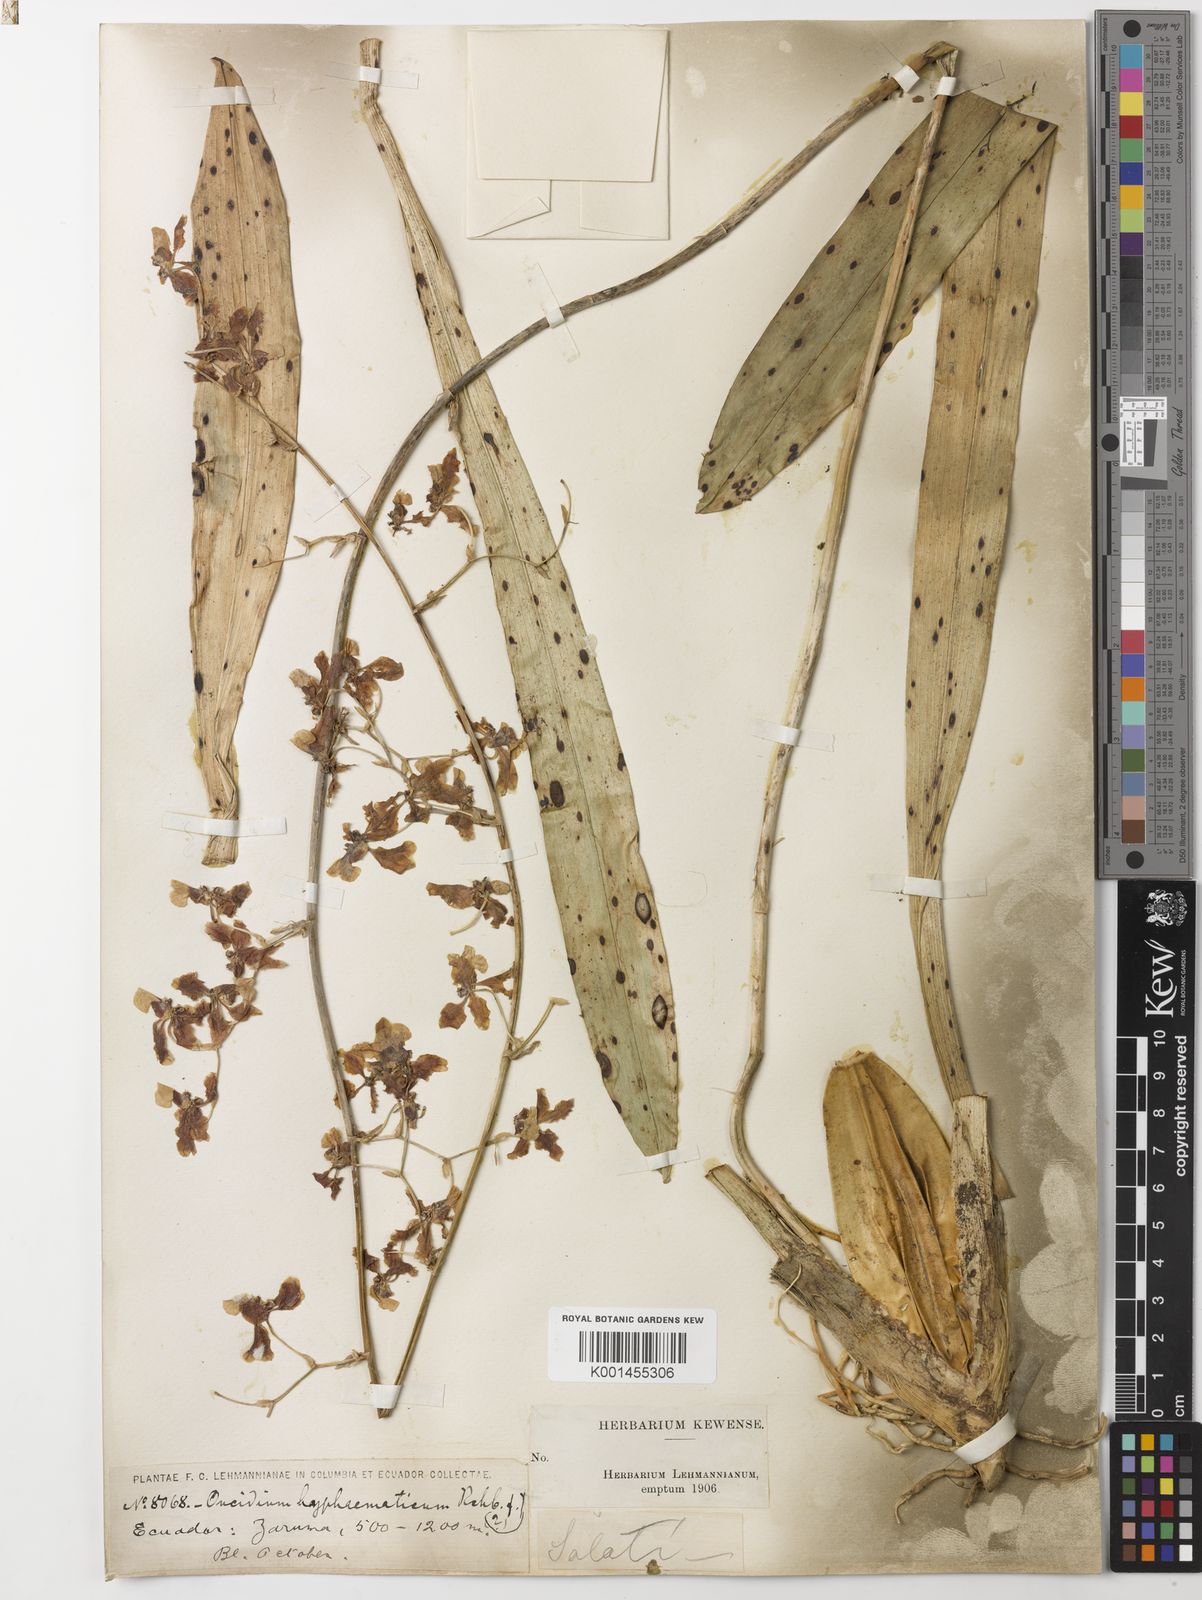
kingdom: Plantae
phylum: Tracheophyta
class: Liliopsida
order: Asparagales
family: Orchidaceae
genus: Oncidium
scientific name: Oncidium hyphaematicum
